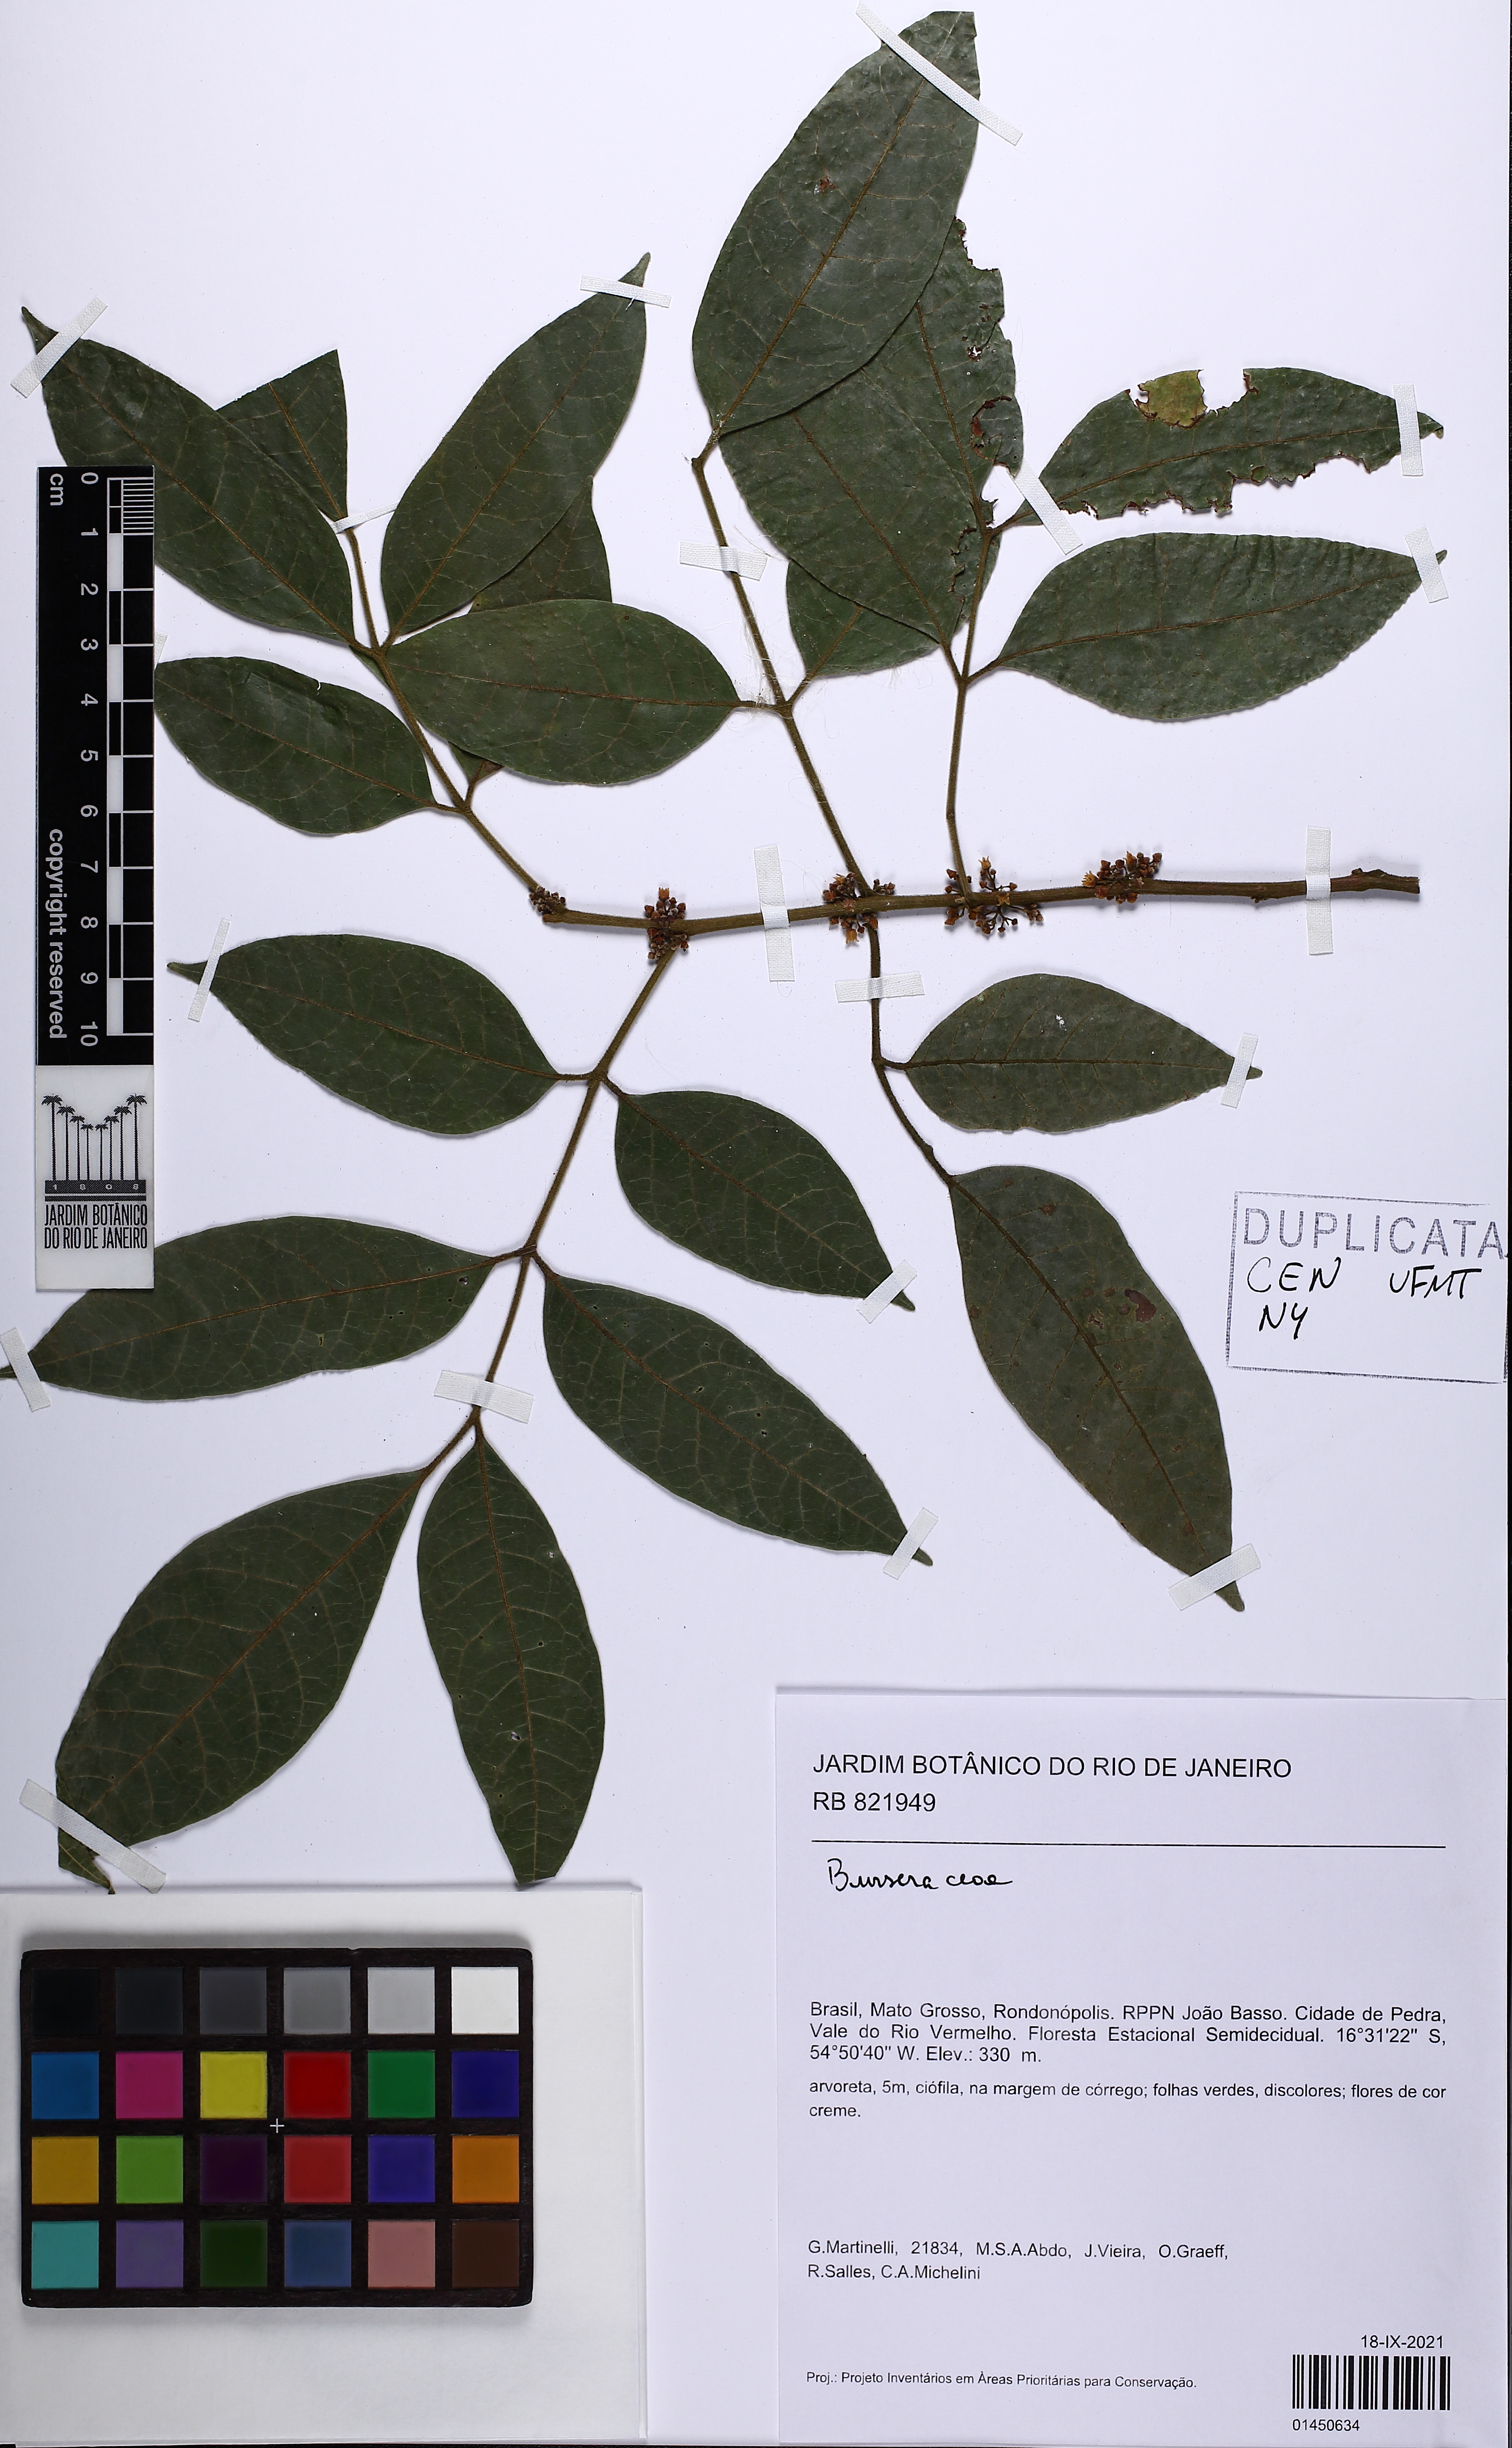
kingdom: Plantae
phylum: Tracheophyta
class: Magnoliopsida
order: Sapindales
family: Burseraceae
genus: Protium
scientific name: Protium pilosissimum
